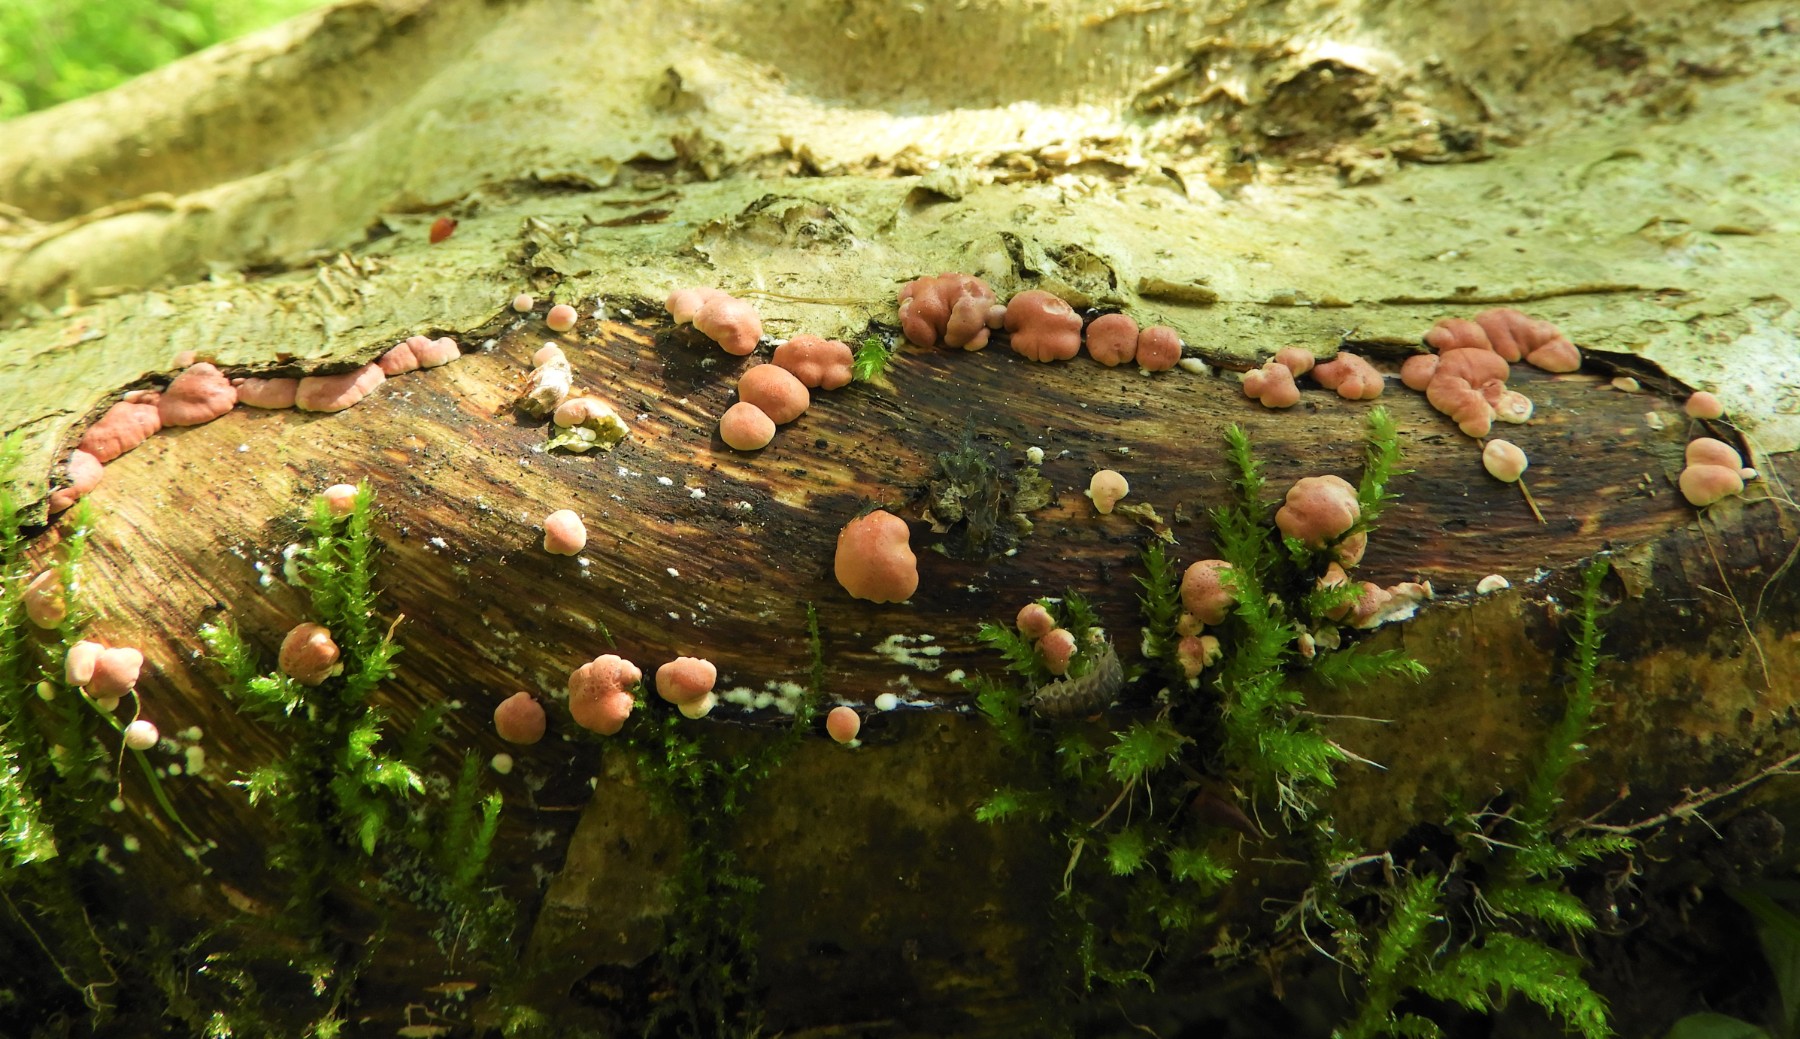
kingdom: Fungi
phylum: Ascomycota
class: Sordariomycetes
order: Hypocreales
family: Hypocreaceae
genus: Trichoderma
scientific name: Trichoderma europaeum
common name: rosabrun kødkerne
